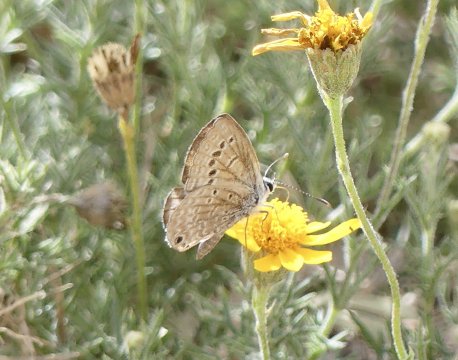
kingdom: Animalia
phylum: Arthropoda
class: Insecta
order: Lepidoptera
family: Lycaenidae
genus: Echinargus
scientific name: Echinargus isola
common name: Reakirt's Blue
